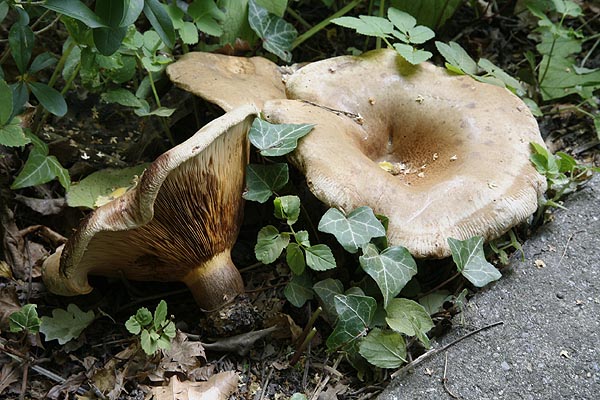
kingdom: Fungi
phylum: Basidiomycota
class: Agaricomycetes
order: Boletales
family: Paxillaceae
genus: Paxillus
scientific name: Paxillus ammoniavirescens
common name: olivensporet netbladhat
